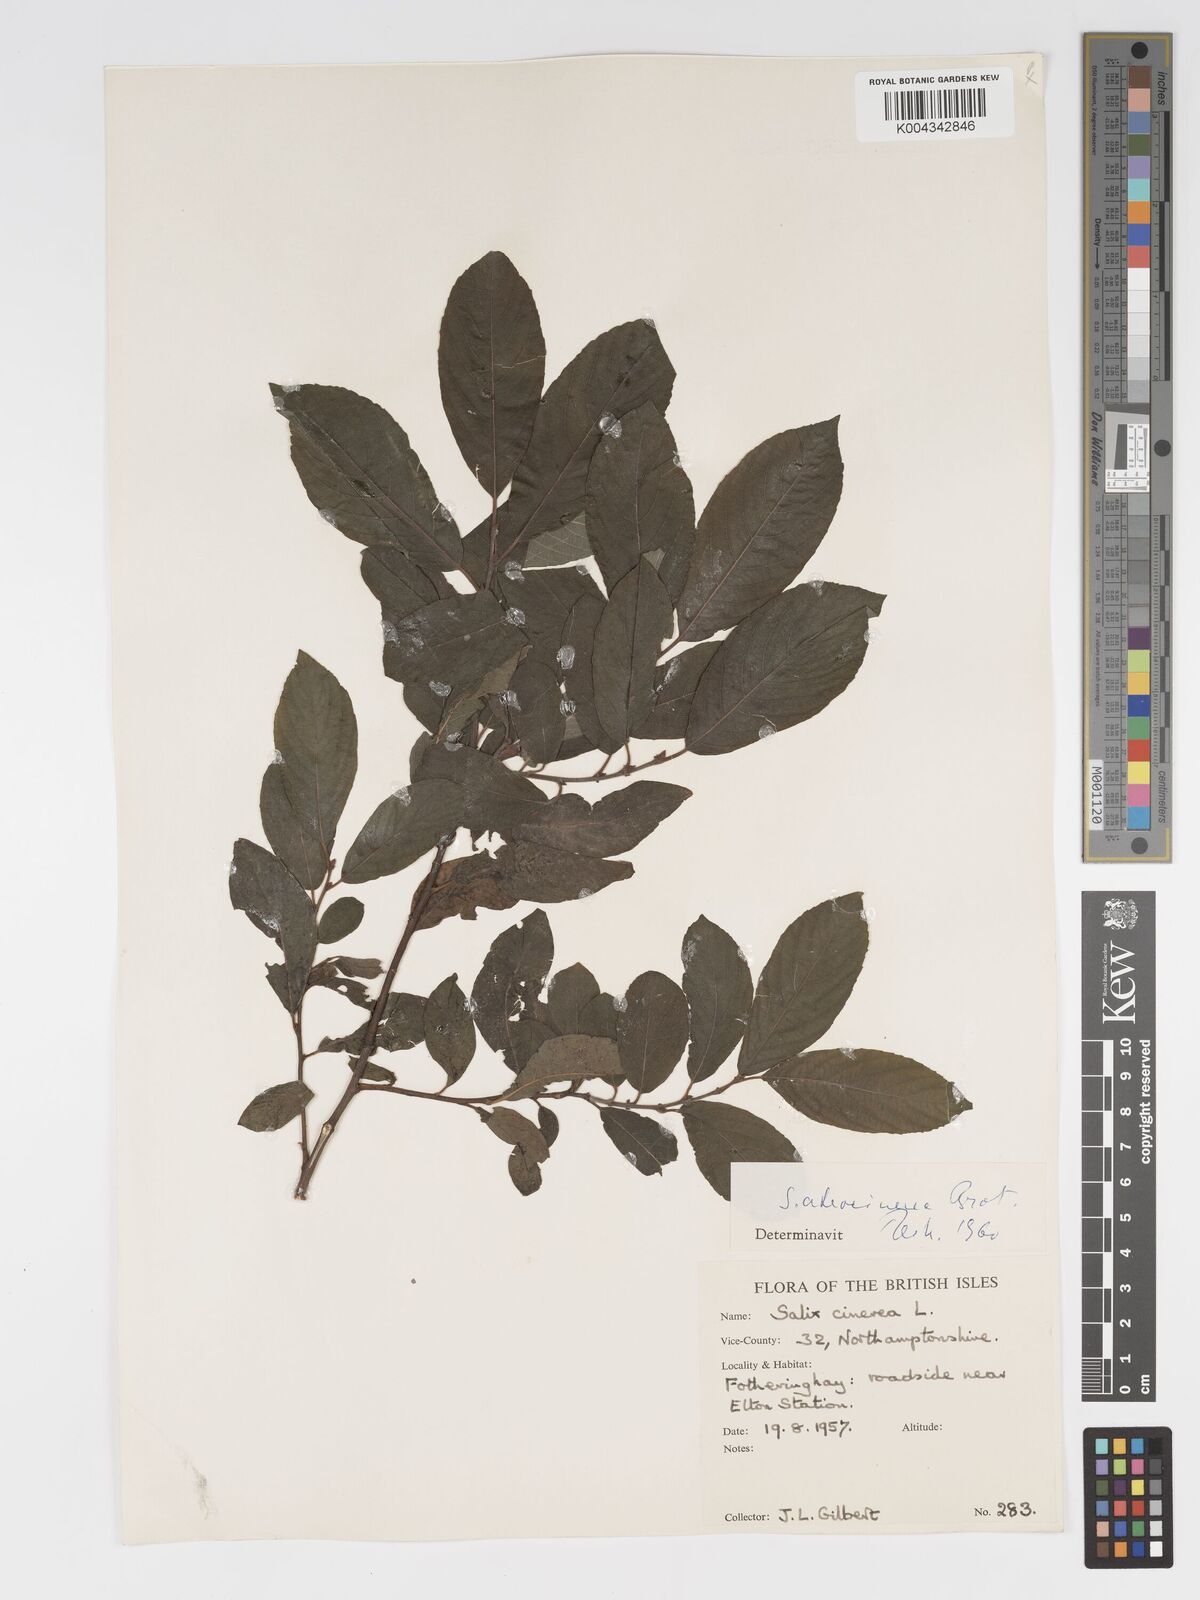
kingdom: Plantae
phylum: Tracheophyta
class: Magnoliopsida
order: Malpighiales
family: Salicaceae
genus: Salix
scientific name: Salix atrocinerea
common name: Rusty willow
